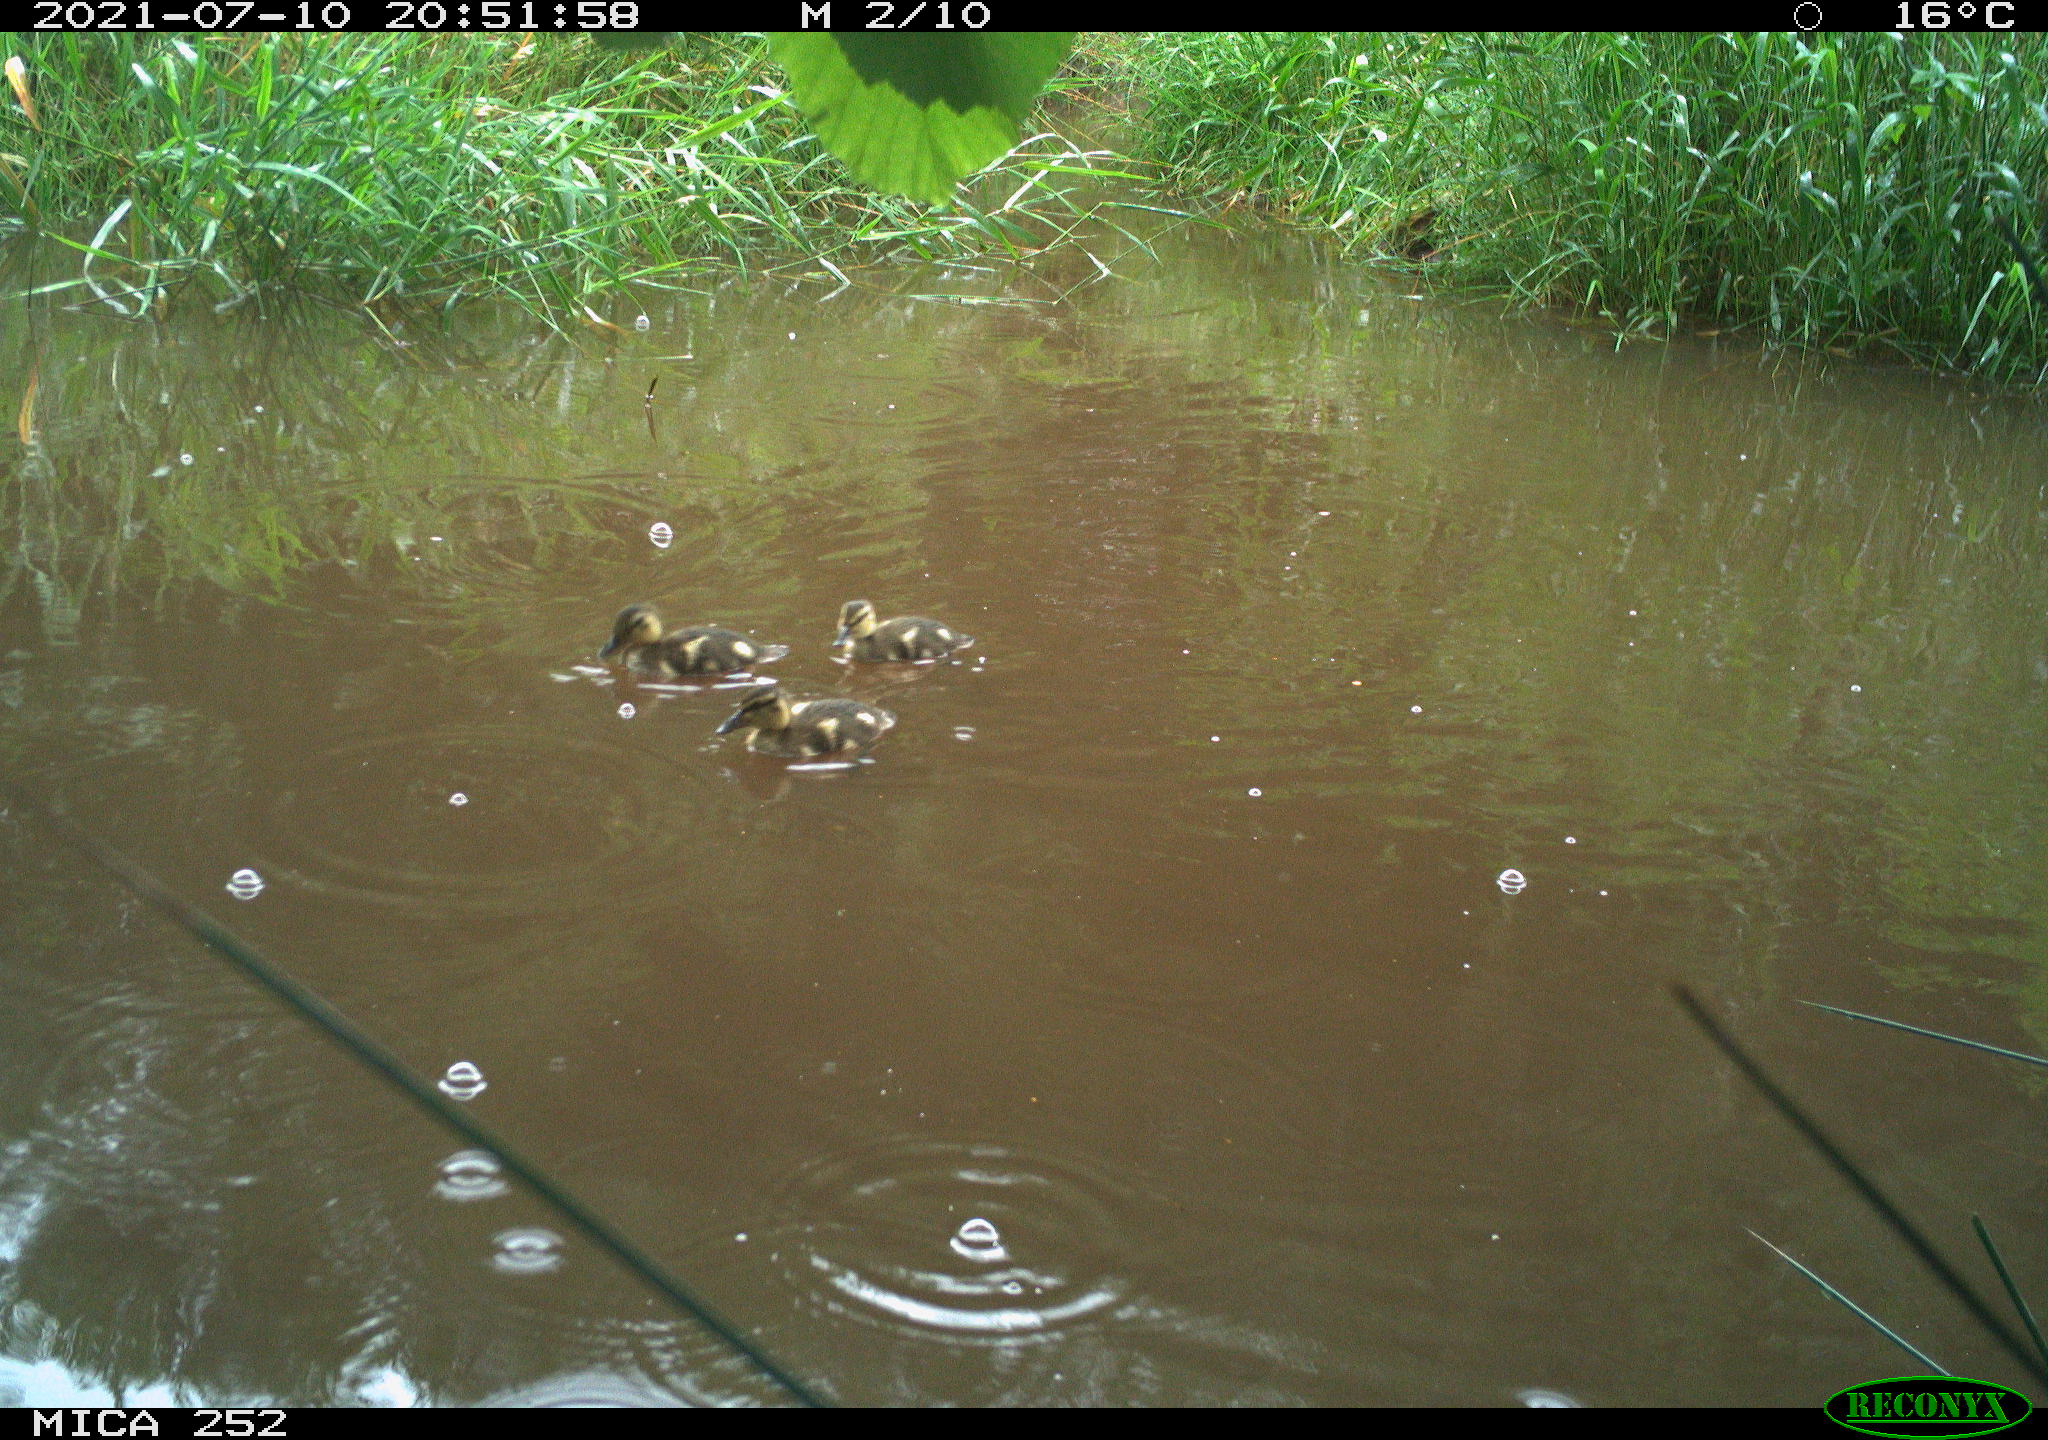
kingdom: Animalia
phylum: Chordata
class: Aves
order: Anseriformes
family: Anatidae
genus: Anas
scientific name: Anas platyrhynchos
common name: Mallard
